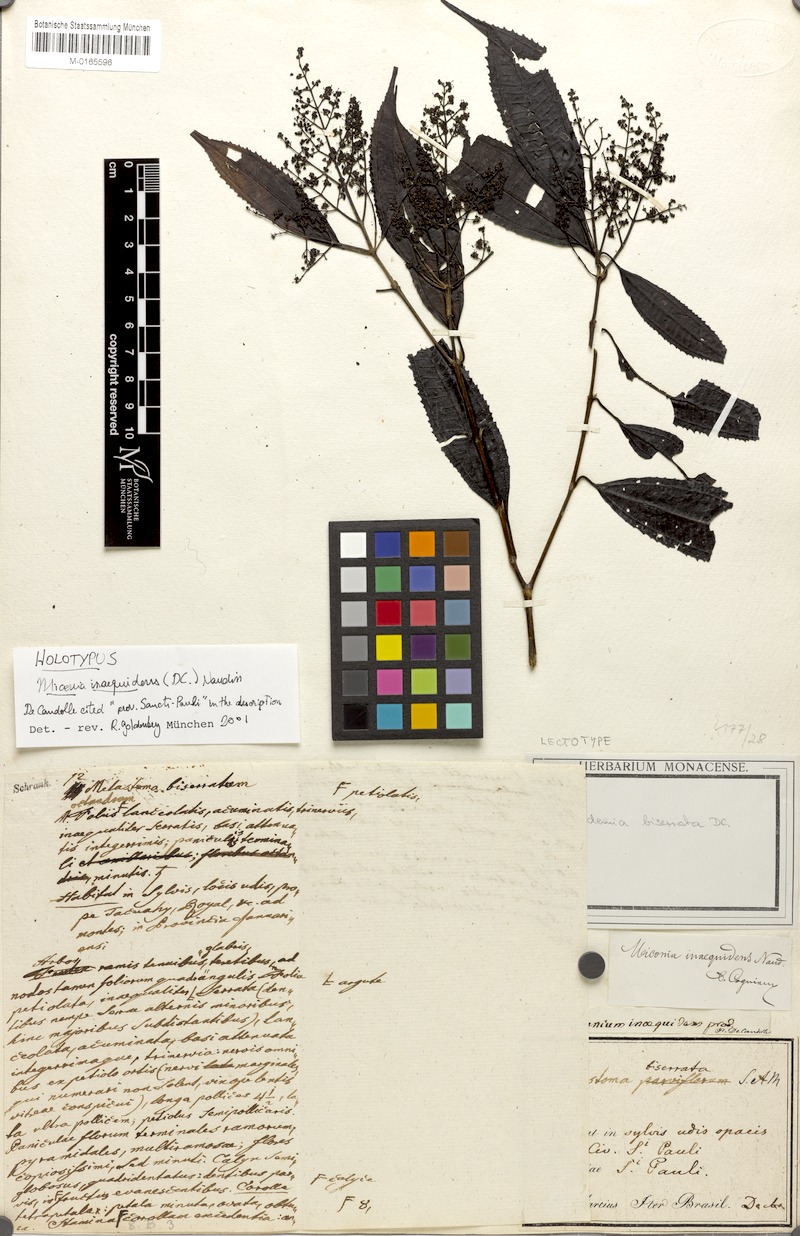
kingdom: Plantae
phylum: Tracheophyta
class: Magnoliopsida
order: Myrtales
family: Melastomataceae
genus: Miconia
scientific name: Miconia inaequidens
